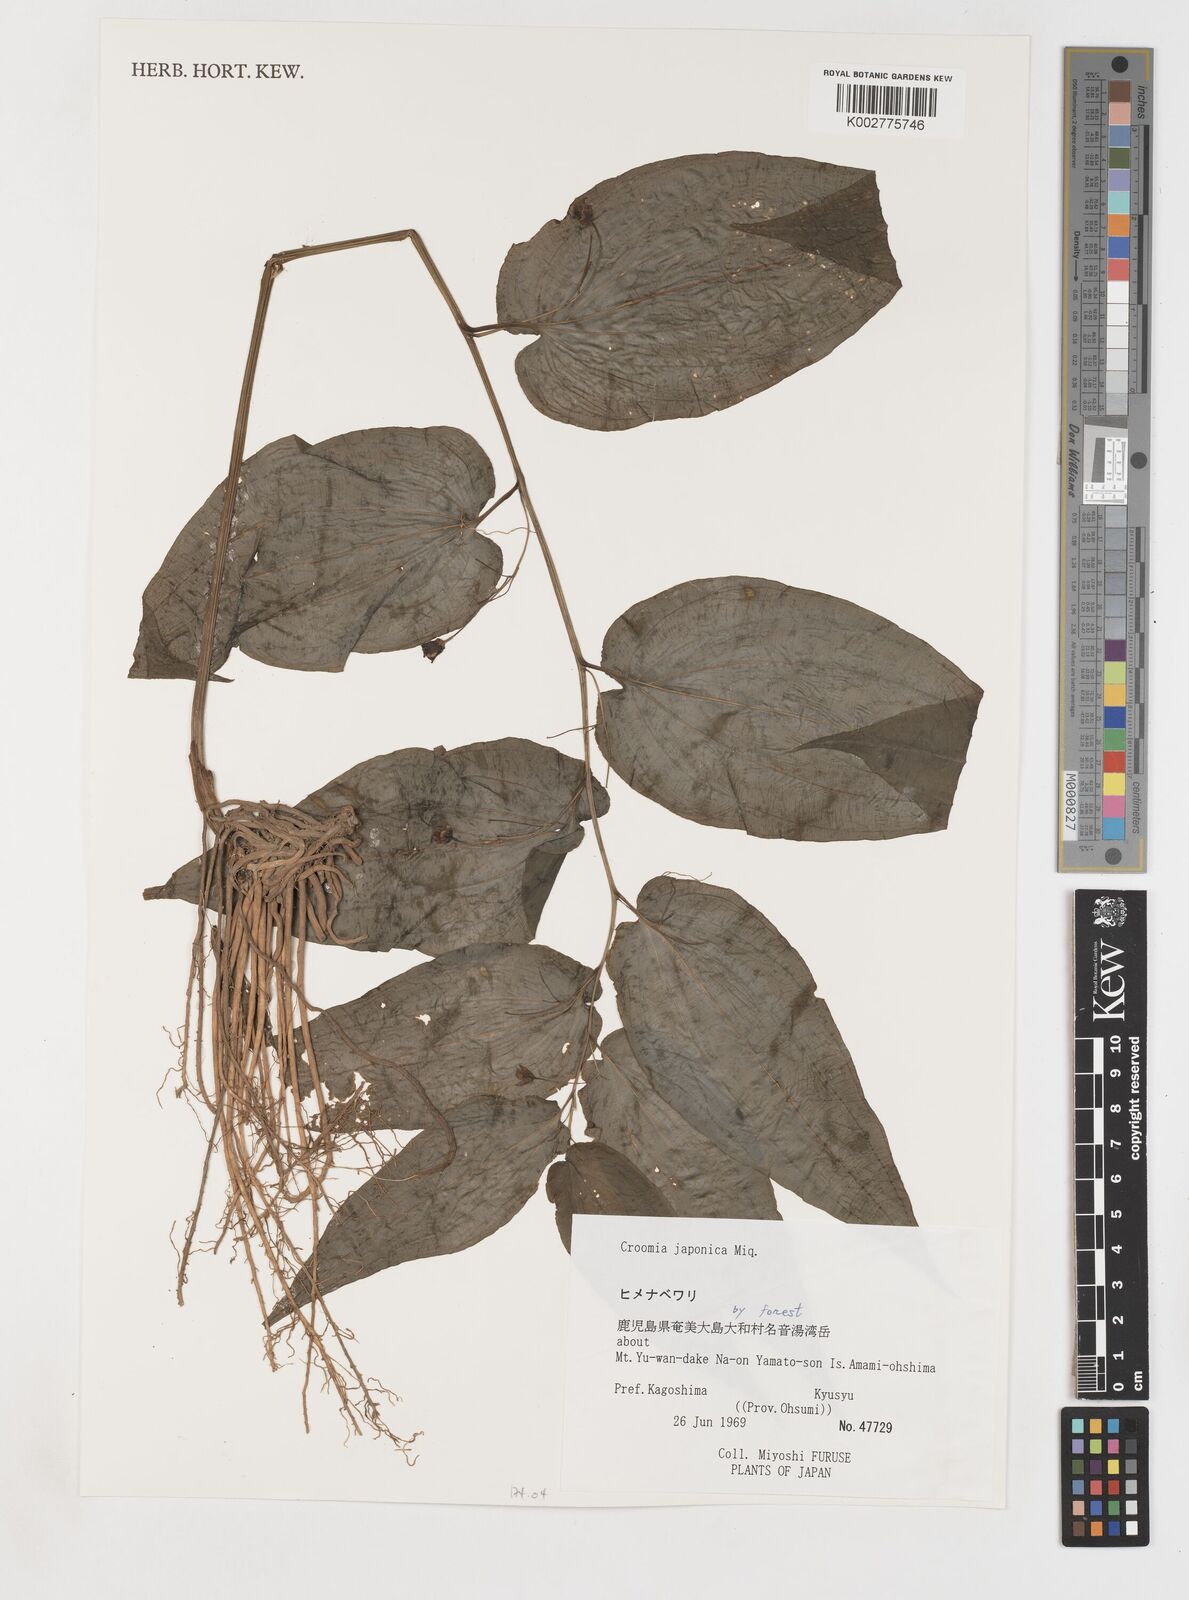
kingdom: Plantae
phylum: Tracheophyta
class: Liliopsida
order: Pandanales
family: Stemonaceae
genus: Croomia
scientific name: Croomia japonica
